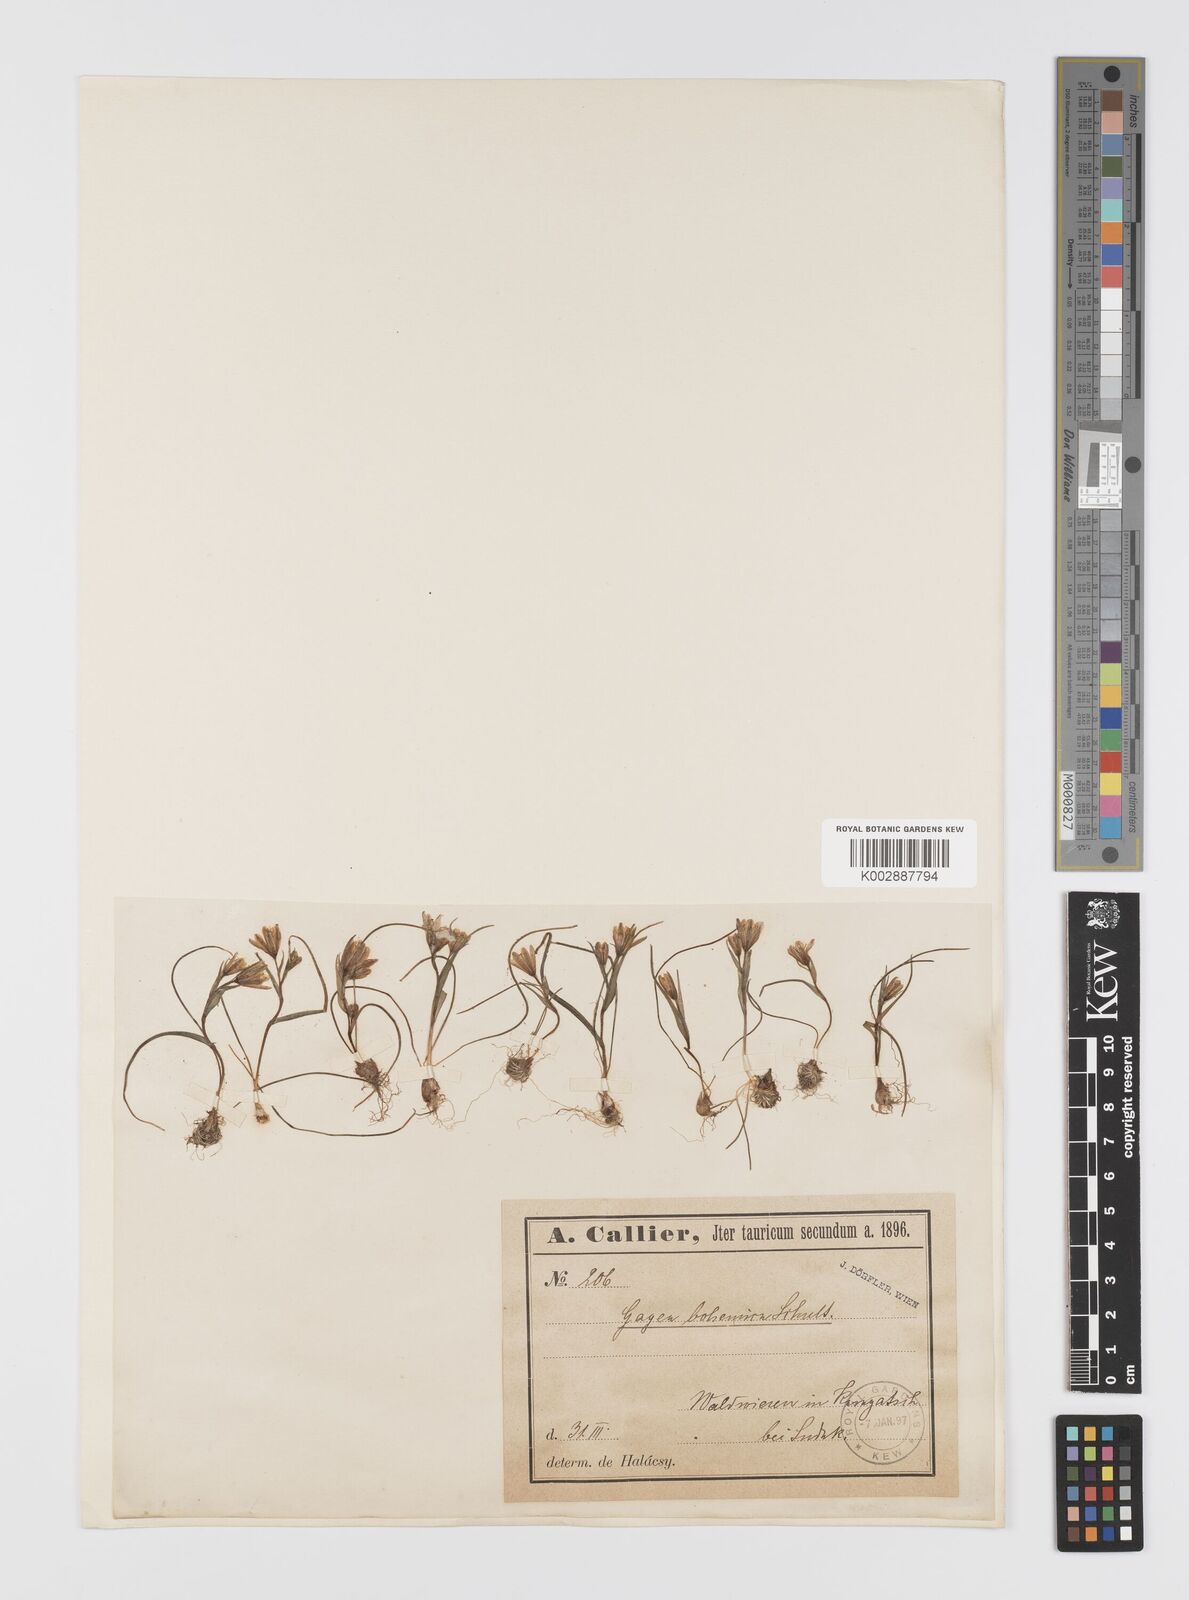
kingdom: Plantae
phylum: Tracheophyta
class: Liliopsida
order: Liliales
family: Liliaceae
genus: Gagea
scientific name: Gagea bohemica
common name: Early star-of-bethlehem
